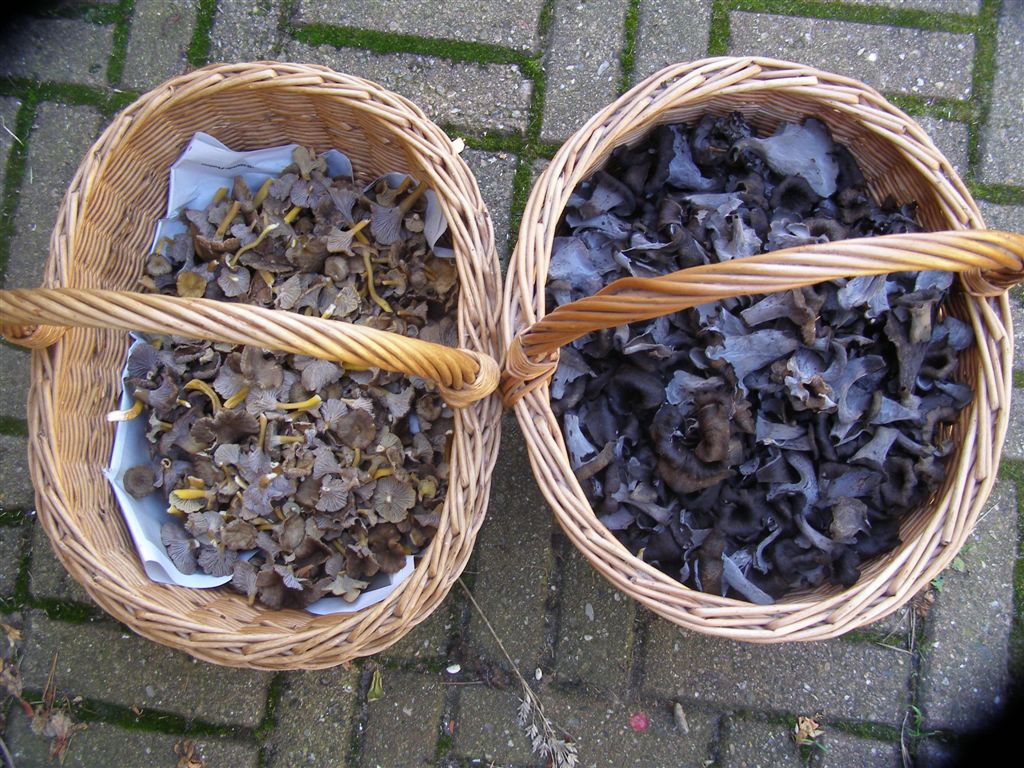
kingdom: Fungi
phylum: Basidiomycota
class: Agaricomycetes
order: Cantharellales
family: Hydnaceae
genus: Craterellus
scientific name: Craterellus cornucopioides
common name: trompetsvamp
